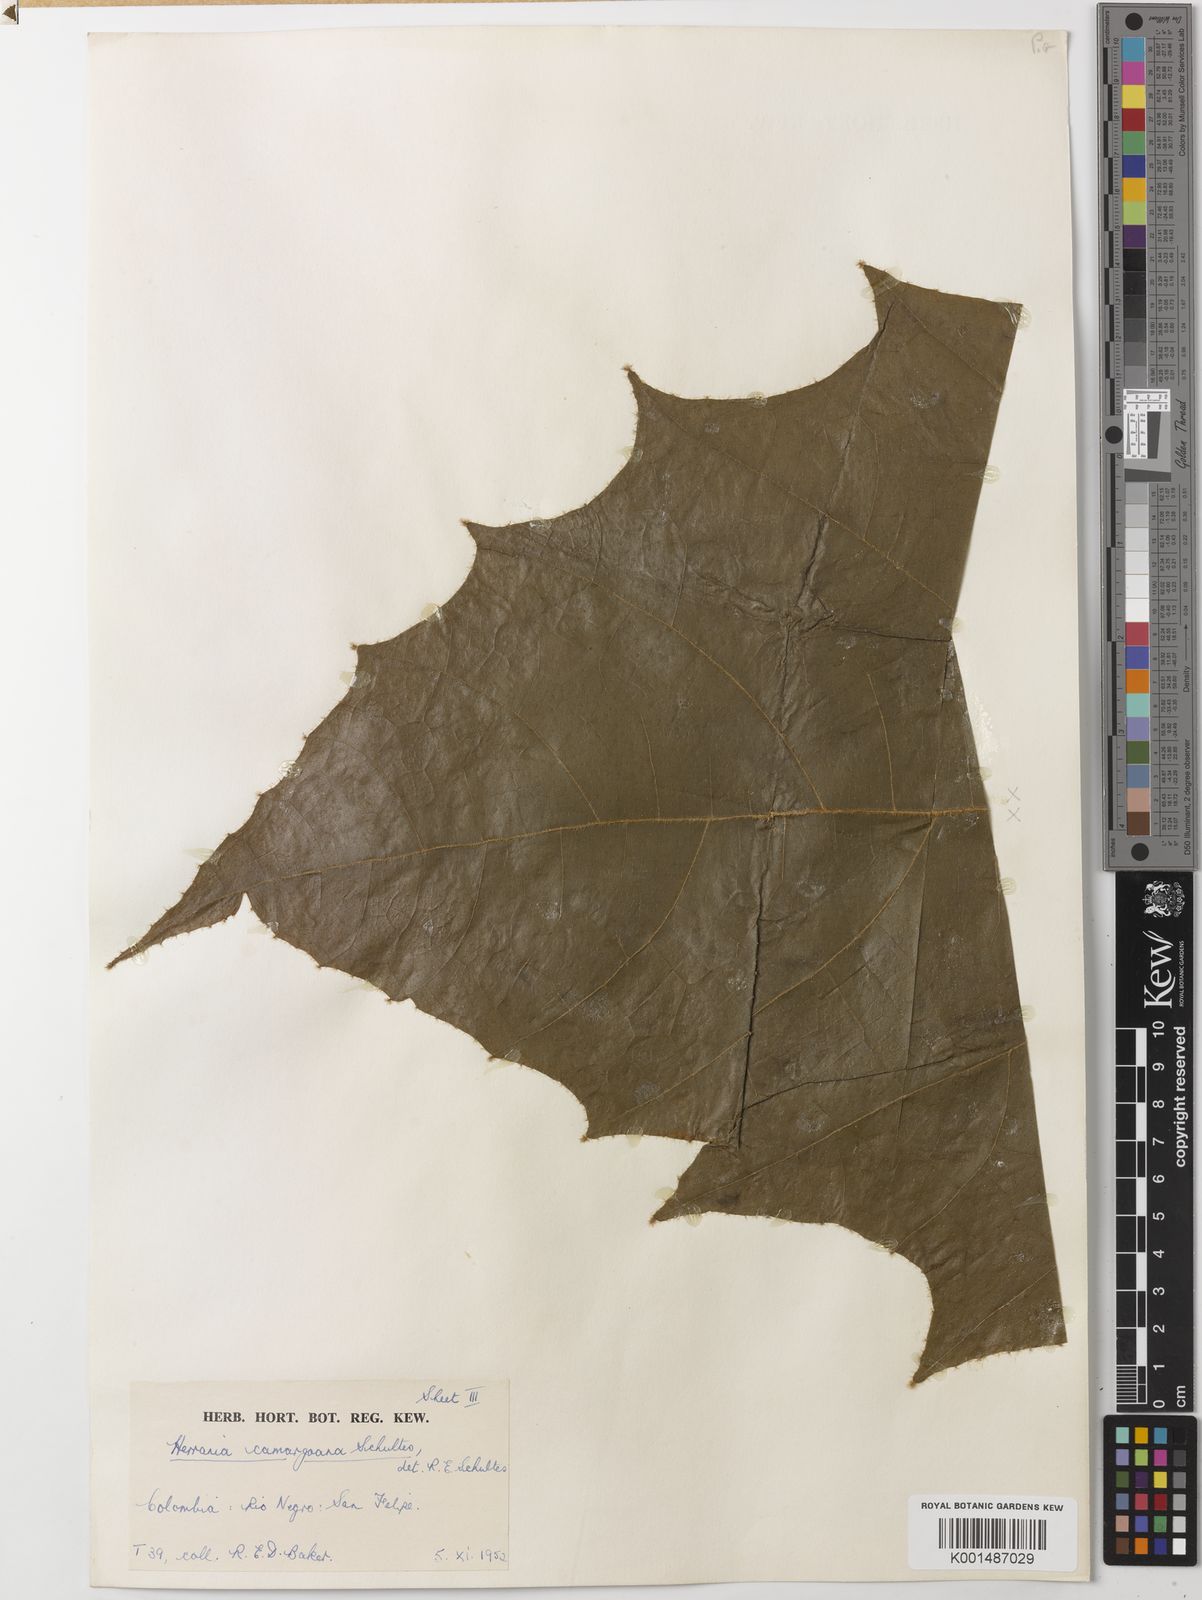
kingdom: Plantae
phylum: Tracheophyta
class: Magnoliopsida
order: Malvales
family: Malvaceae
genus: Herrania
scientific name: Herrania camargoana
